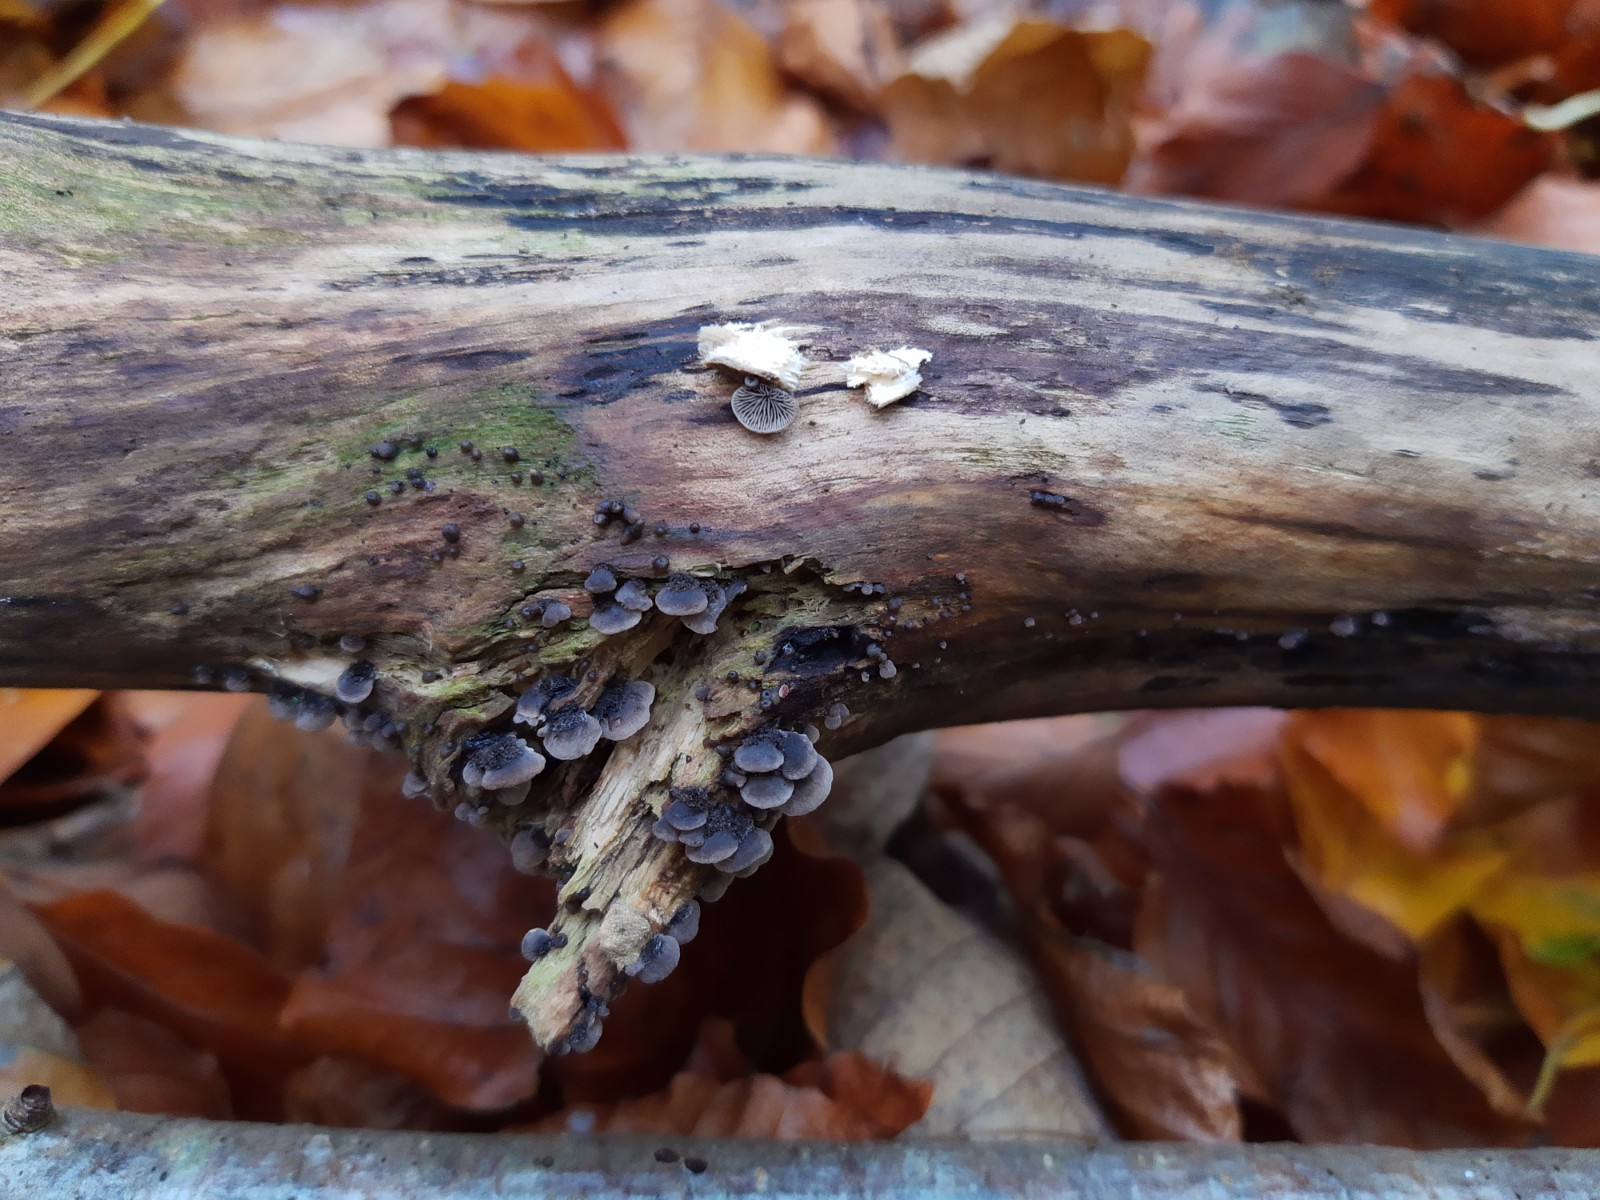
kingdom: Fungi
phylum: Basidiomycota
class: Agaricomycetes
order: Agaricales
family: Pleurotaceae
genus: Resupinatus
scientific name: Resupinatus trichotis
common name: mørkfiltet barkhat
